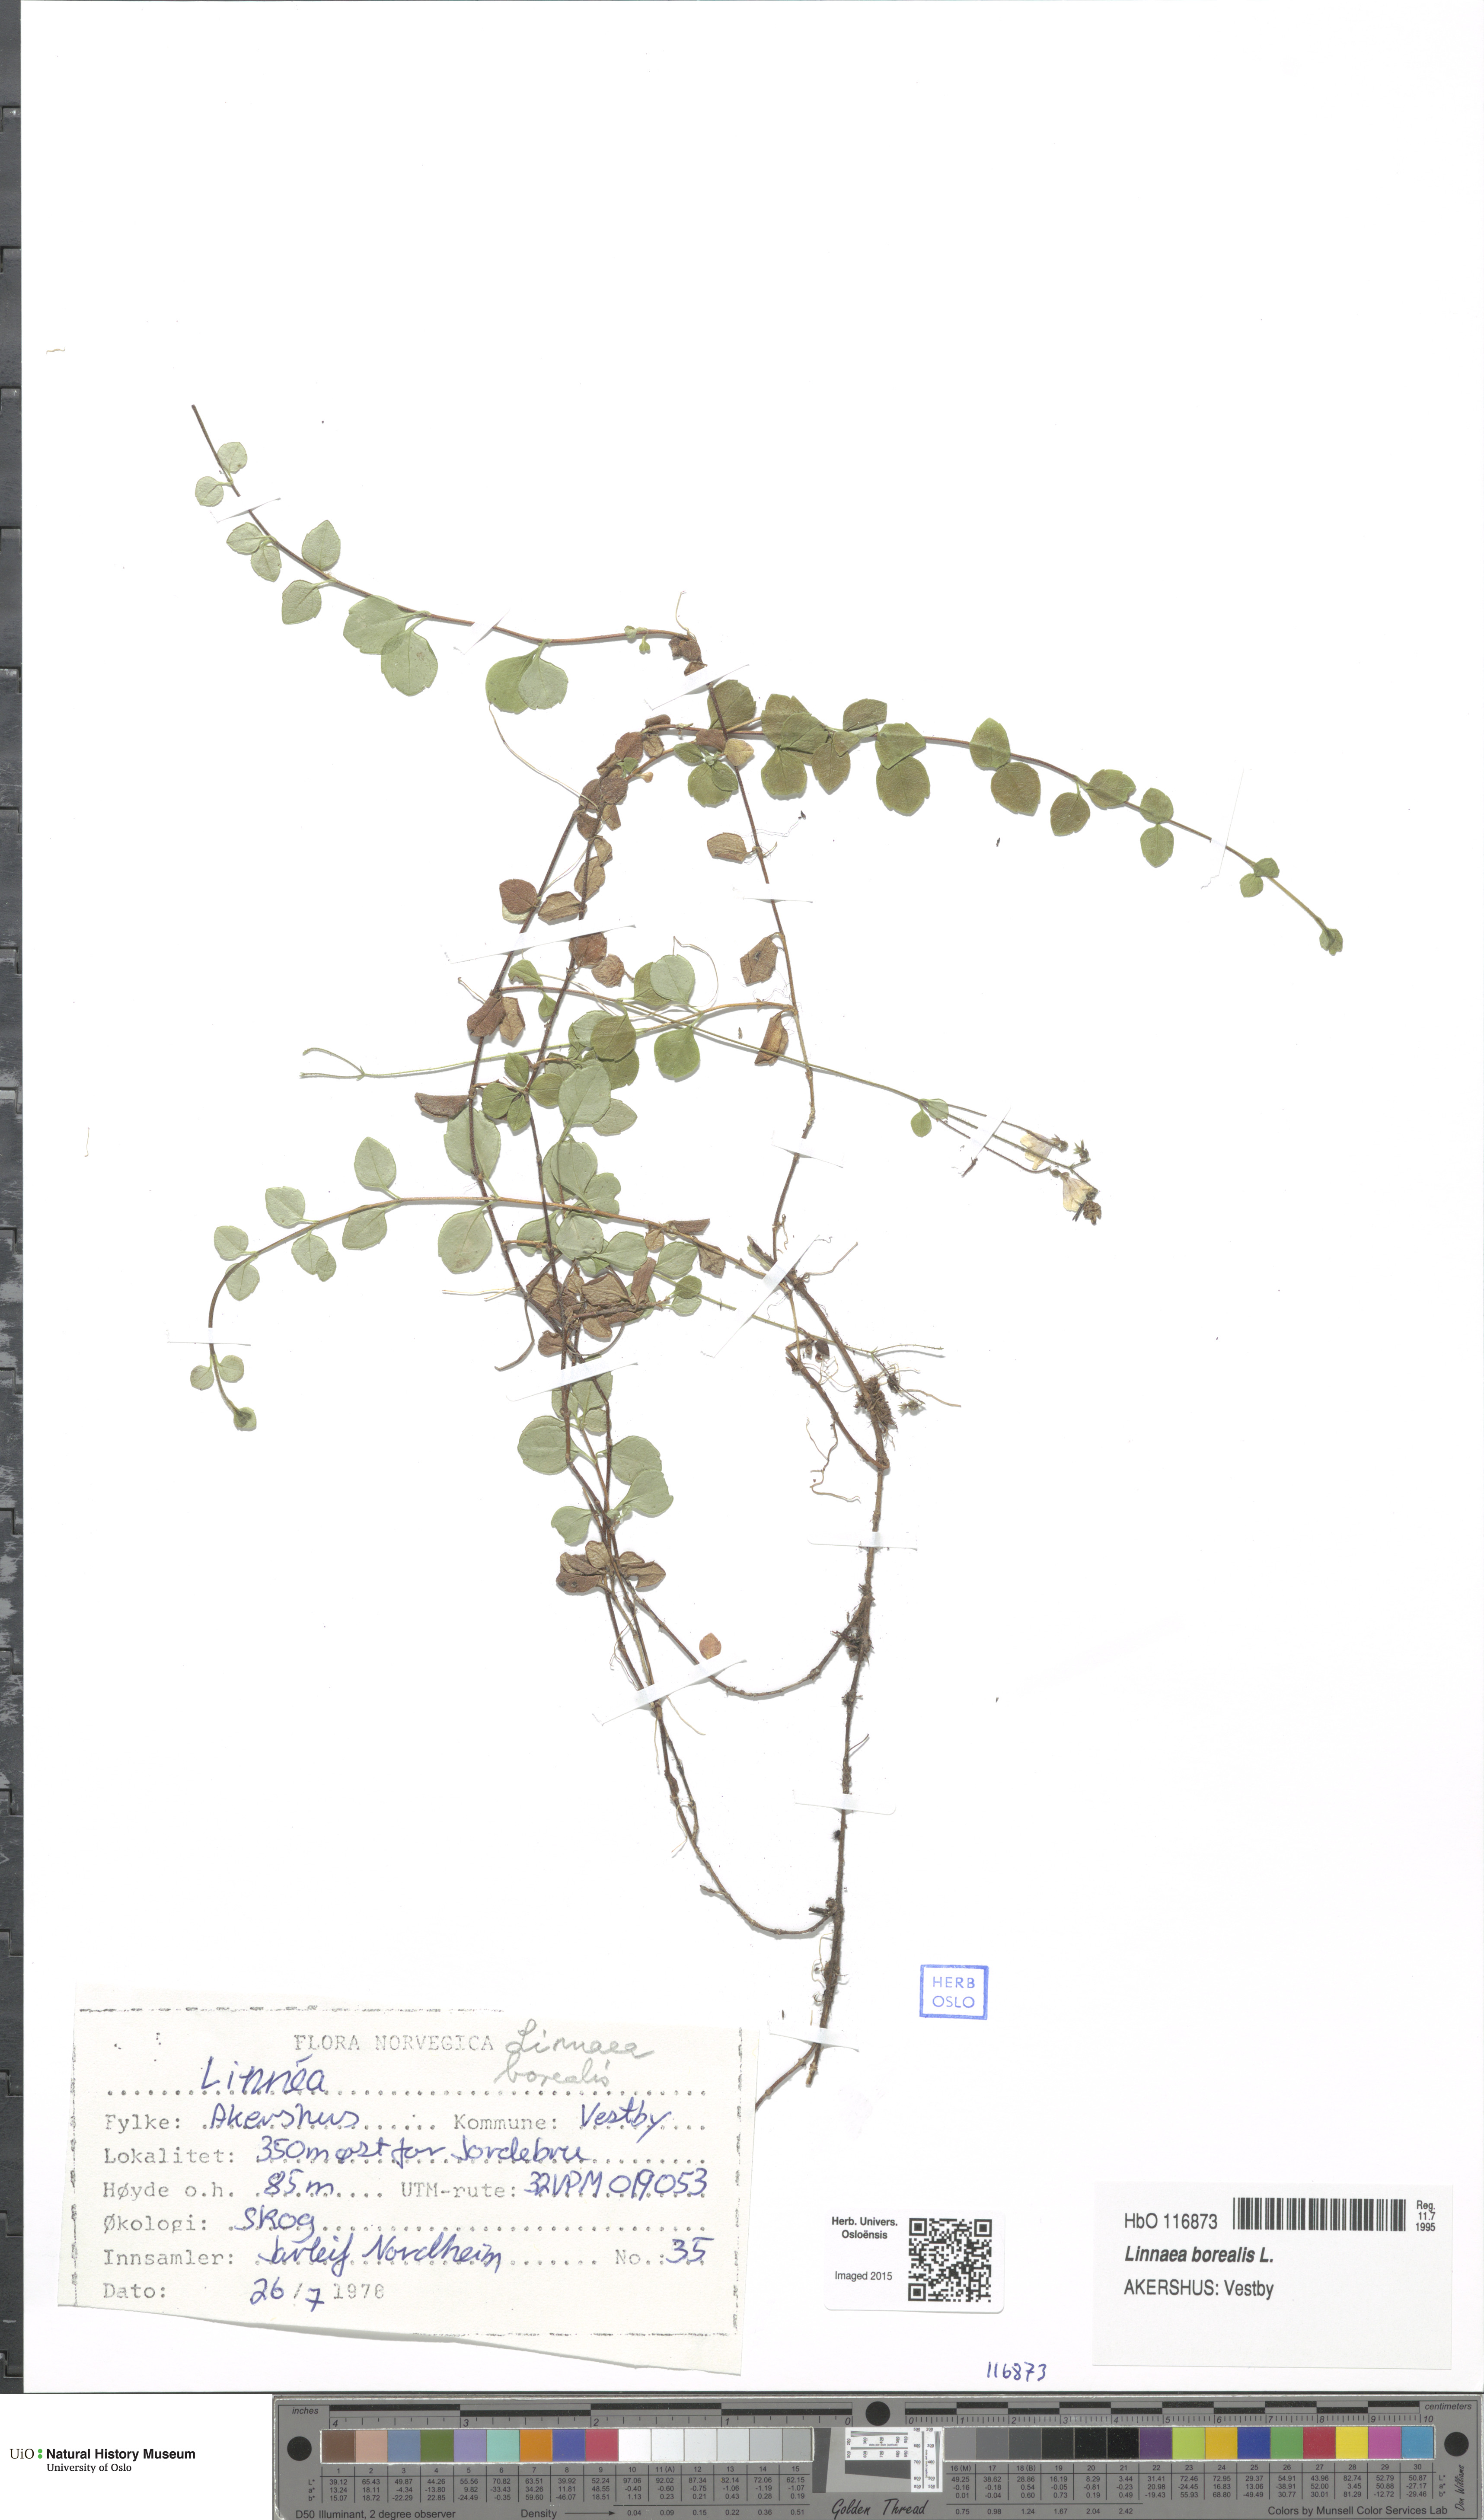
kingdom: Plantae
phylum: Tracheophyta
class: Magnoliopsida
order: Dipsacales
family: Caprifoliaceae
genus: Linnaea
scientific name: Linnaea borealis
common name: Twinflower
